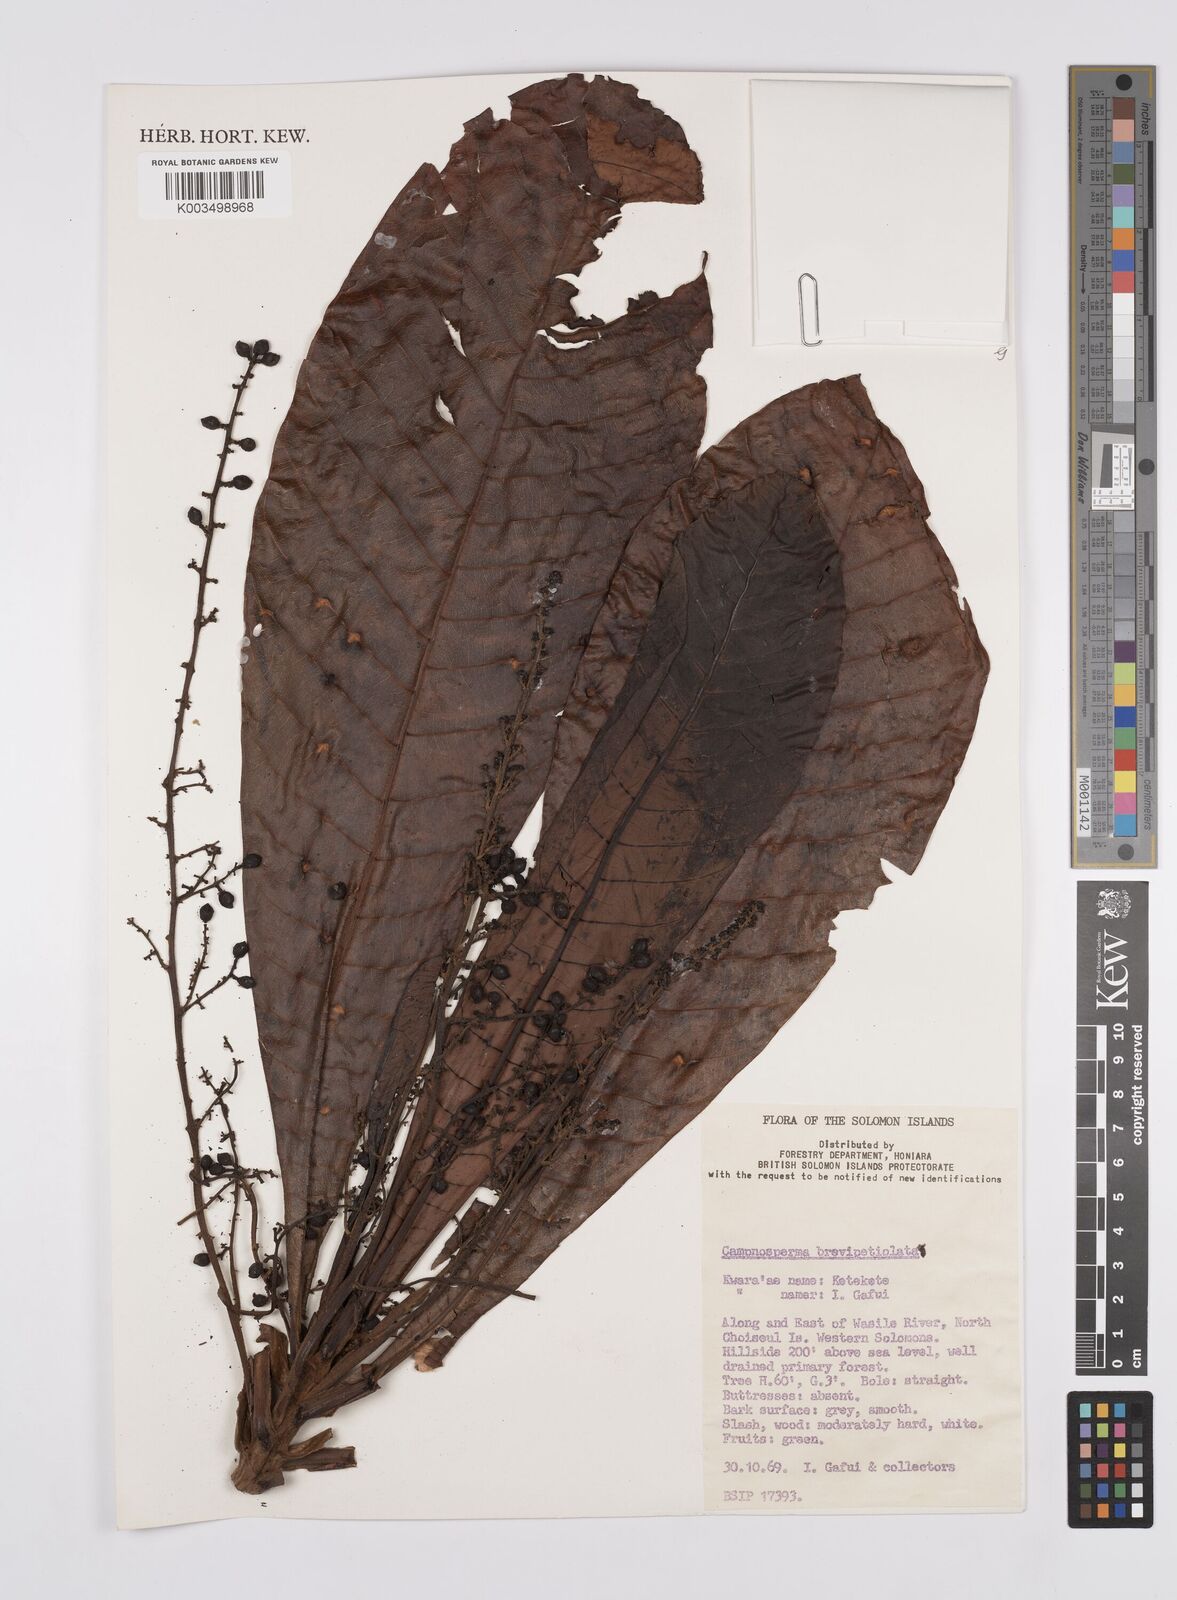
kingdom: Plantae
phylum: Tracheophyta
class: Magnoliopsida
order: Sapindales
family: Anacardiaceae
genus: Campnosperma
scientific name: Campnosperma brevipetiolatum
